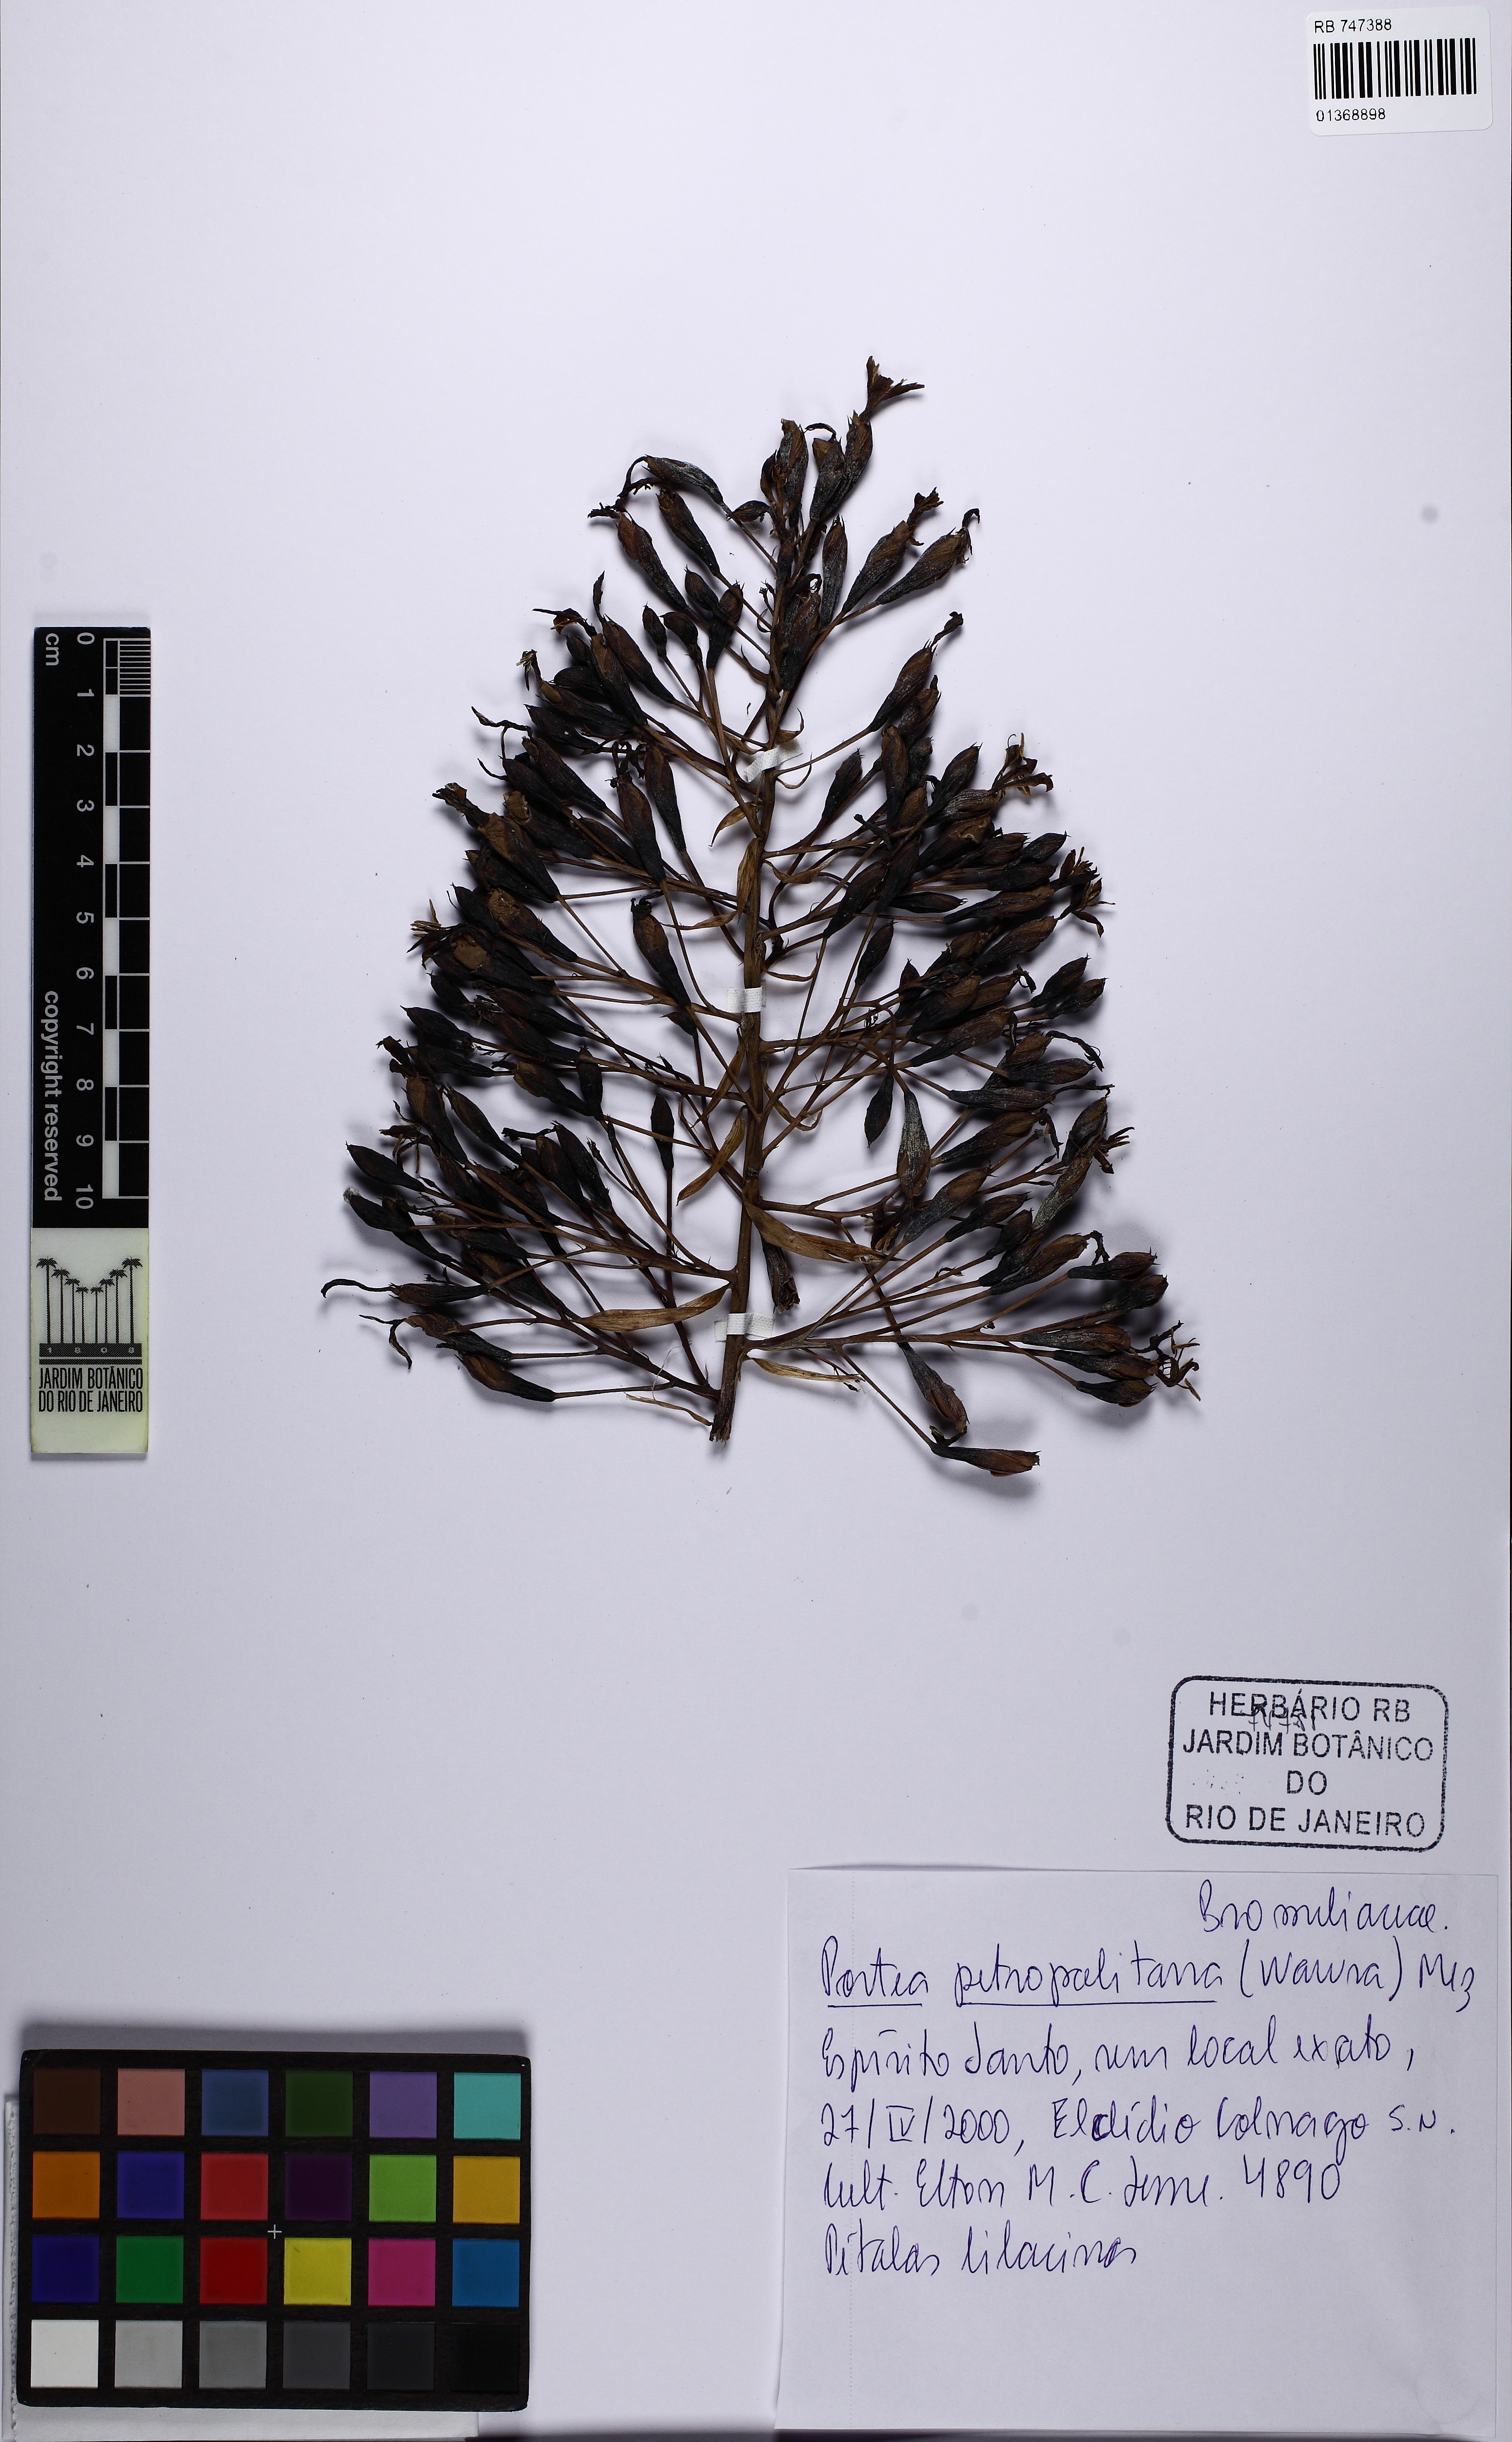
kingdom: Plantae
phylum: Tracheophyta
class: Liliopsida
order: Poales
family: Bromeliaceae
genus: Portea
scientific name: Portea petropolitana
